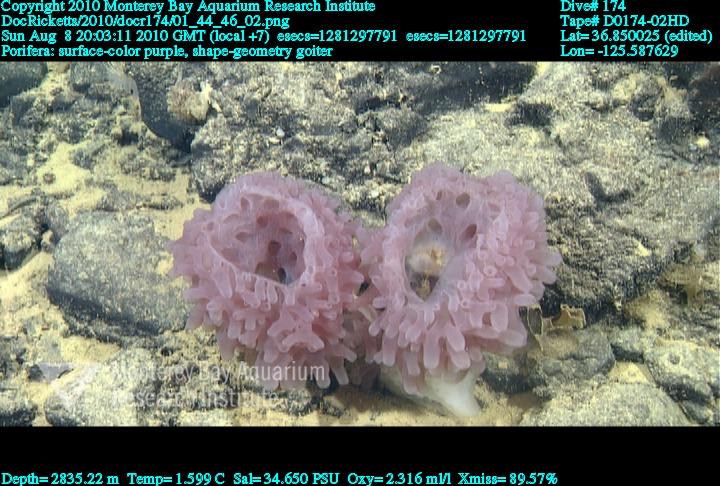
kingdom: Animalia
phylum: Porifera
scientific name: Porifera
